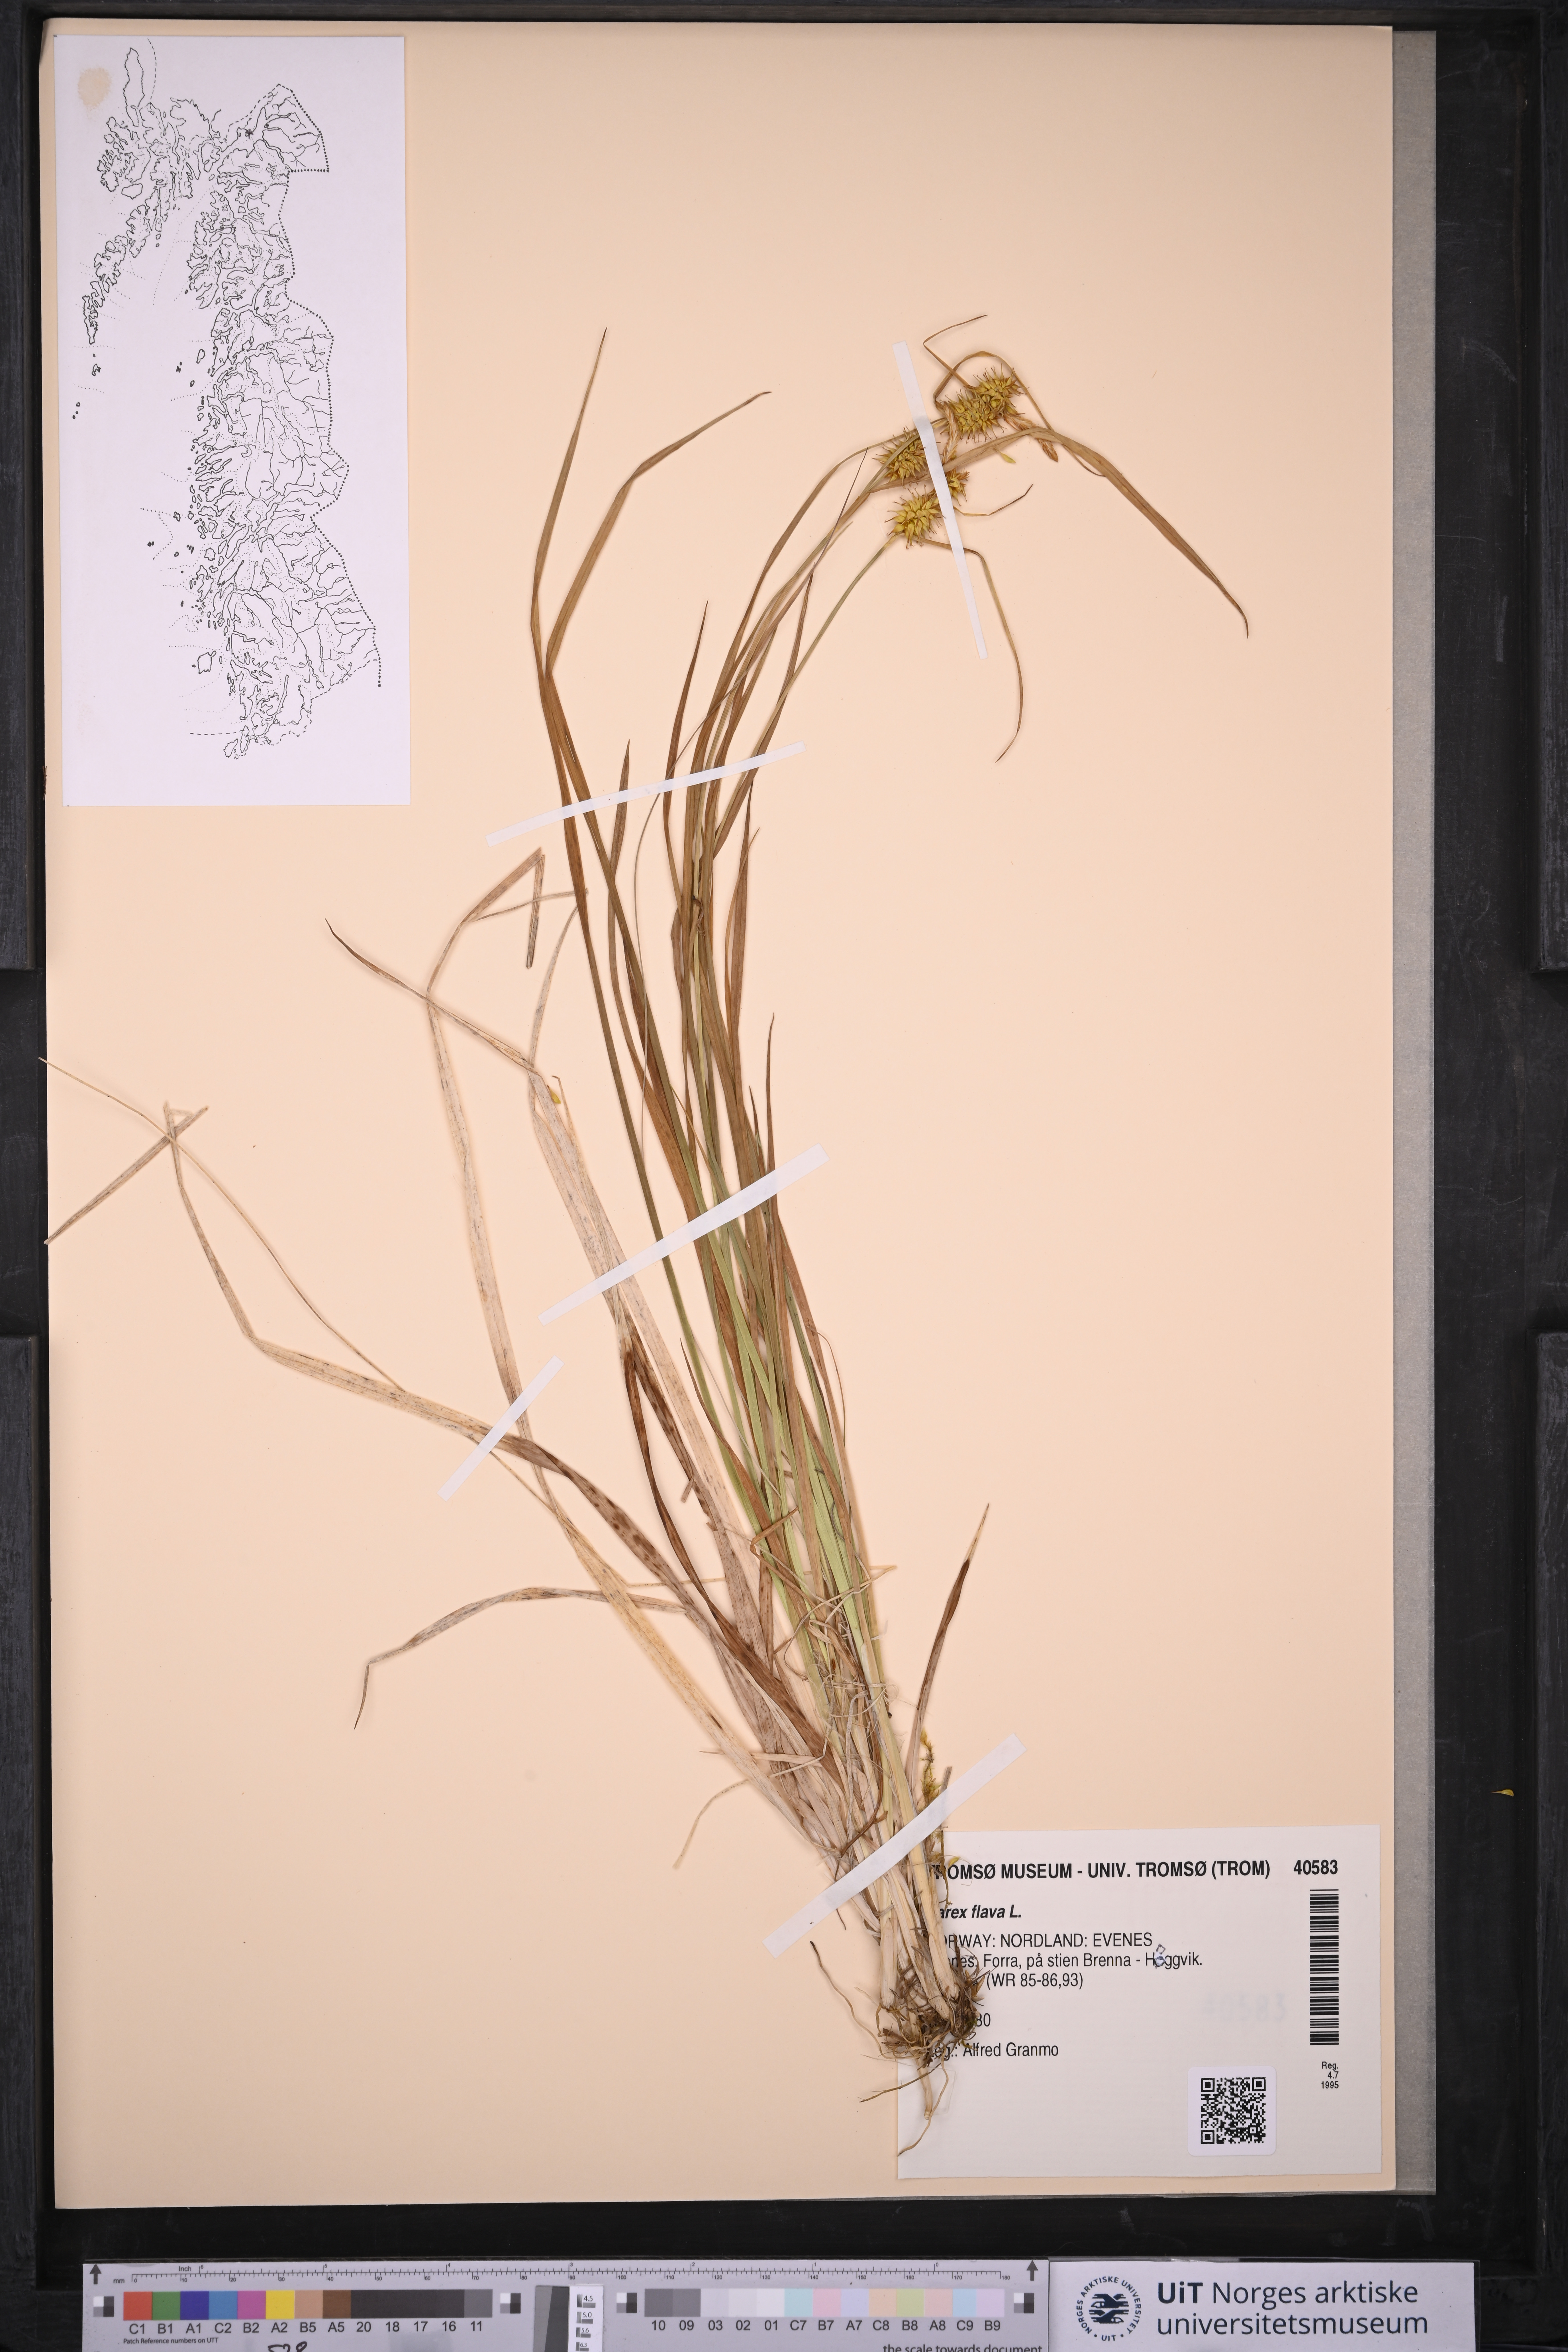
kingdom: Plantae
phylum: Tracheophyta
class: Liliopsida
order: Poales
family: Cyperaceae
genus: Carex
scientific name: Carex flava
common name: Large yellow-sedge
